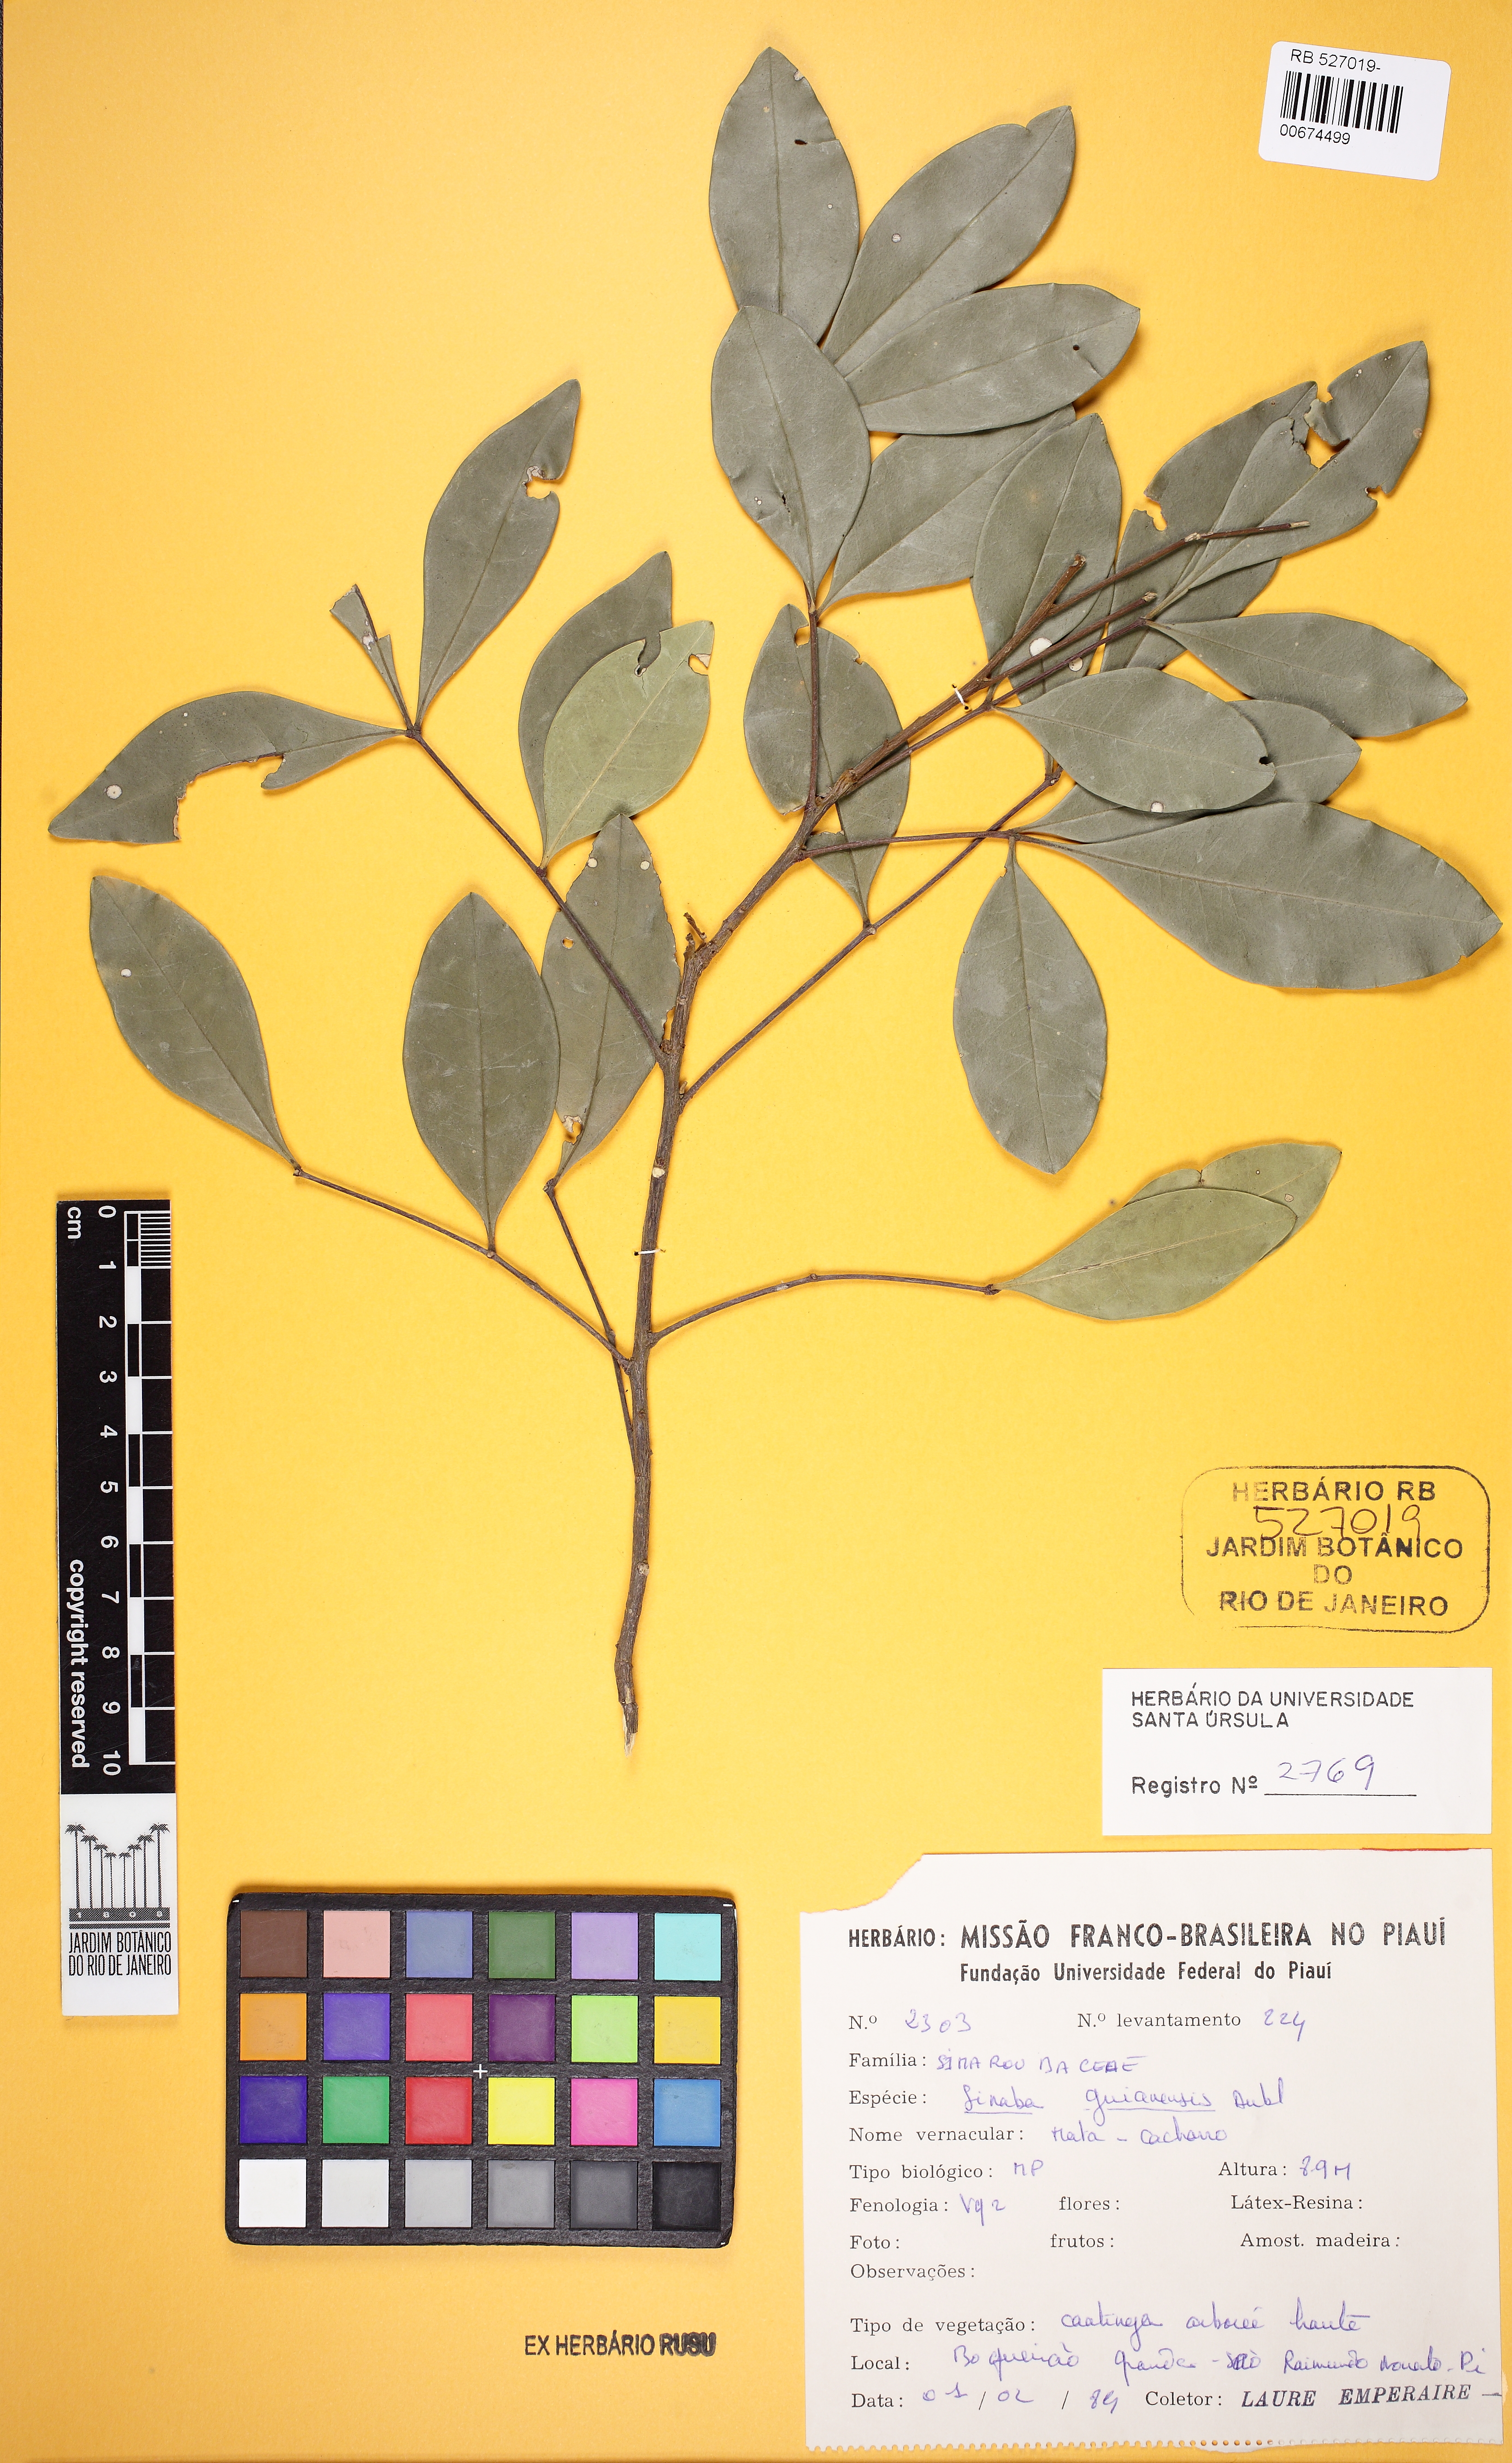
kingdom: Plantae
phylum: Tracheophyta
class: Magnoliopsida
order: Sapindales
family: Simaroubaceae
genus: Simaba
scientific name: Simaba guianensis
